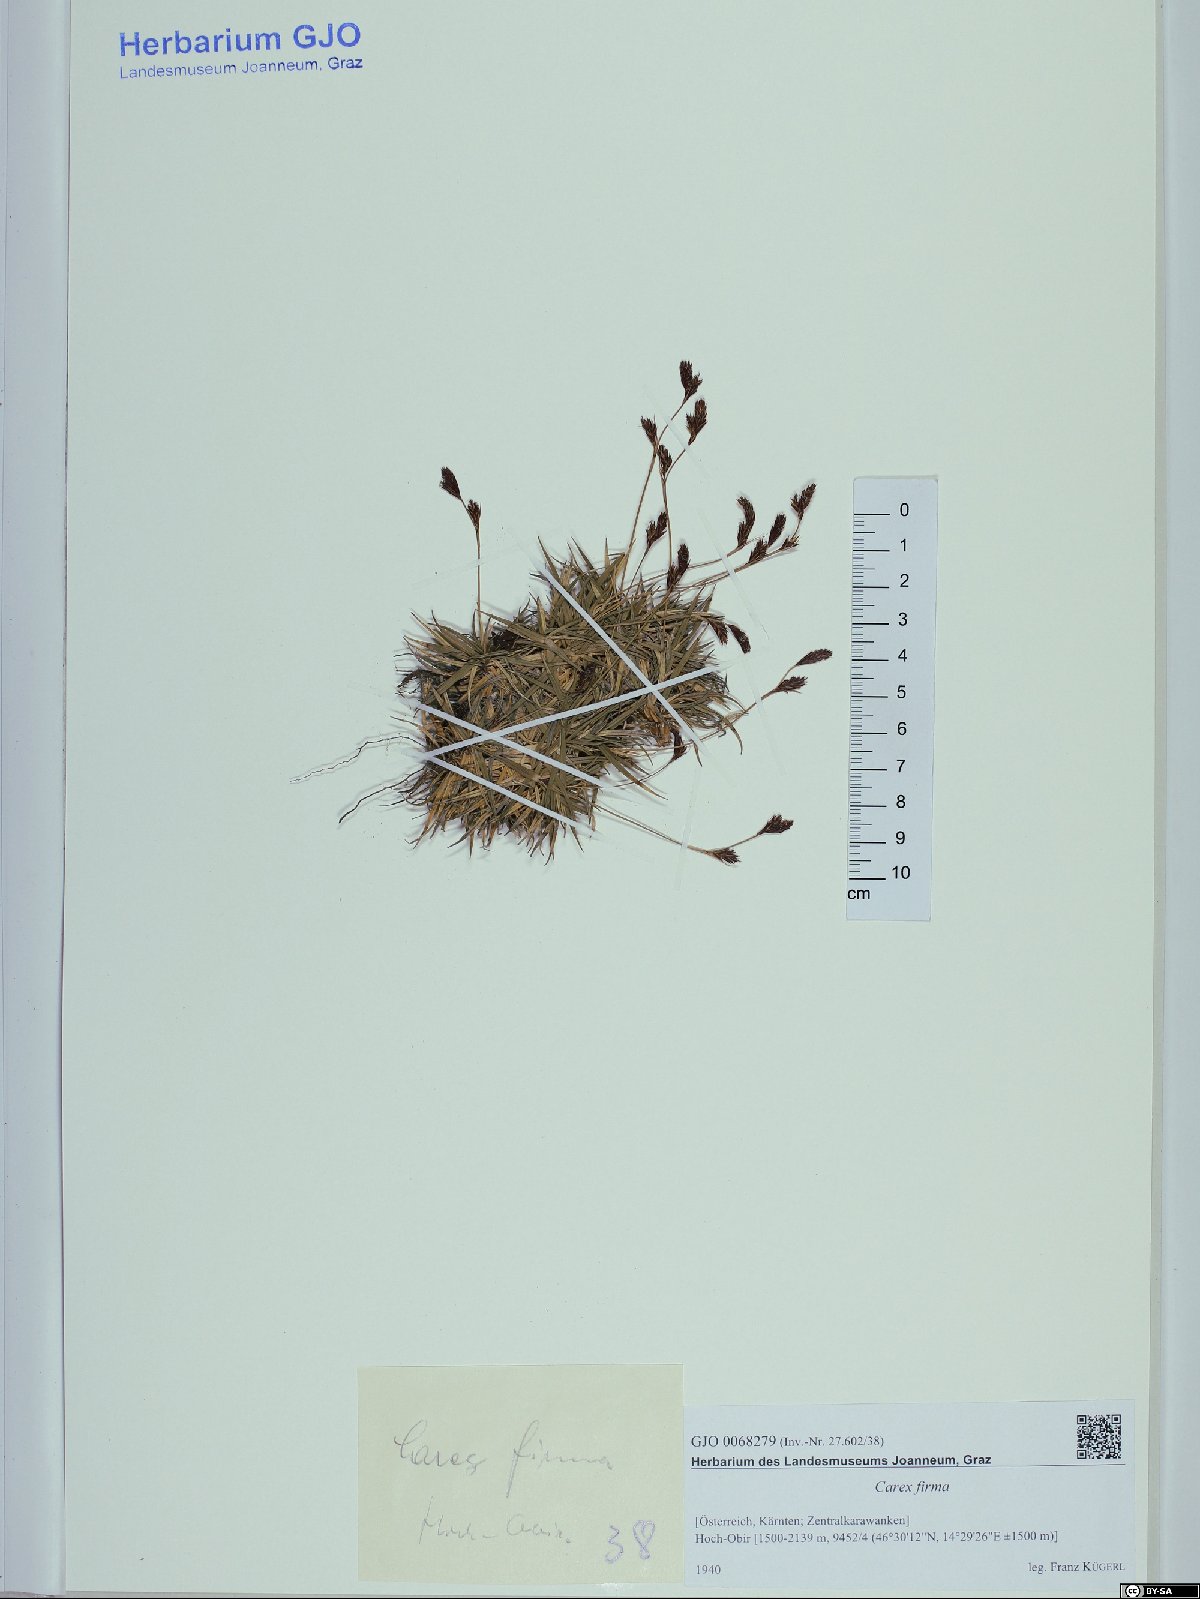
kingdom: Plantae
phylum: Tracheophyta
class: Liliopsida
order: Poales
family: Cyperaceae
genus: Carex
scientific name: Carex firma
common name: Dwarf pillow sedge
